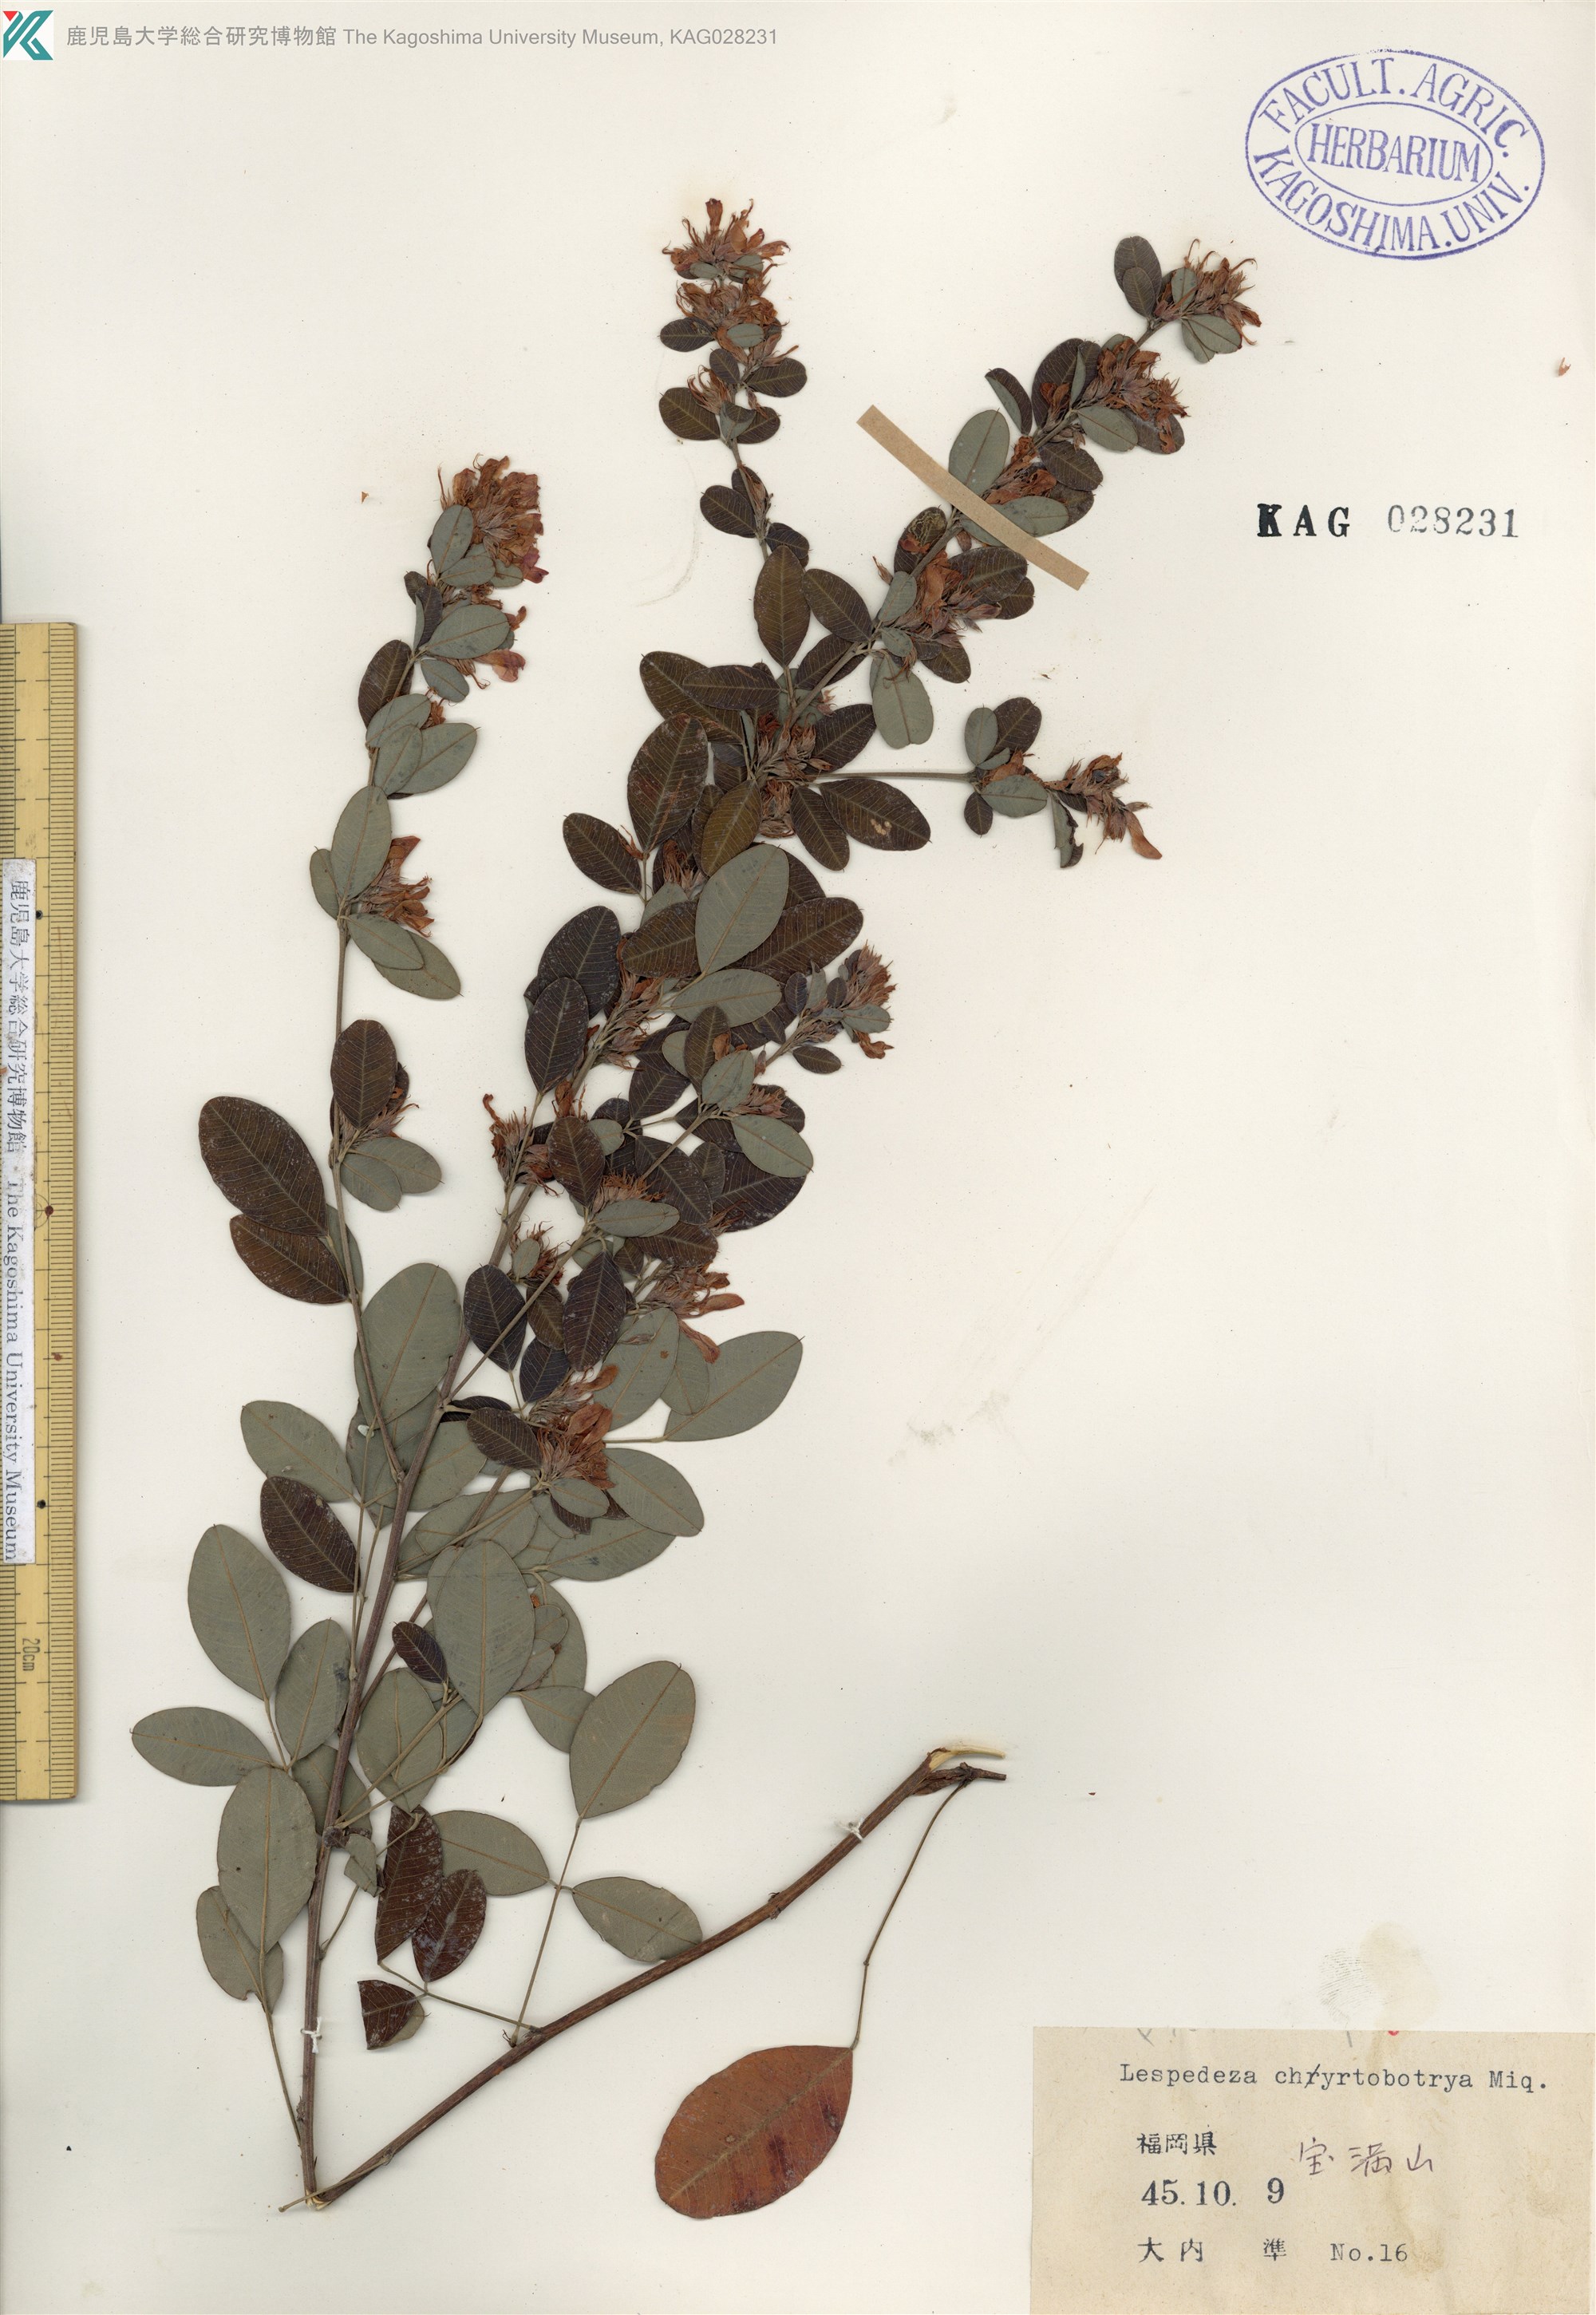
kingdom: Plantae
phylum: Tracheophyta
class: Magnoliopsida
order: Fabales
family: Fabaceae
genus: Lespedeza
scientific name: Lespedeza cyrtobotrya
